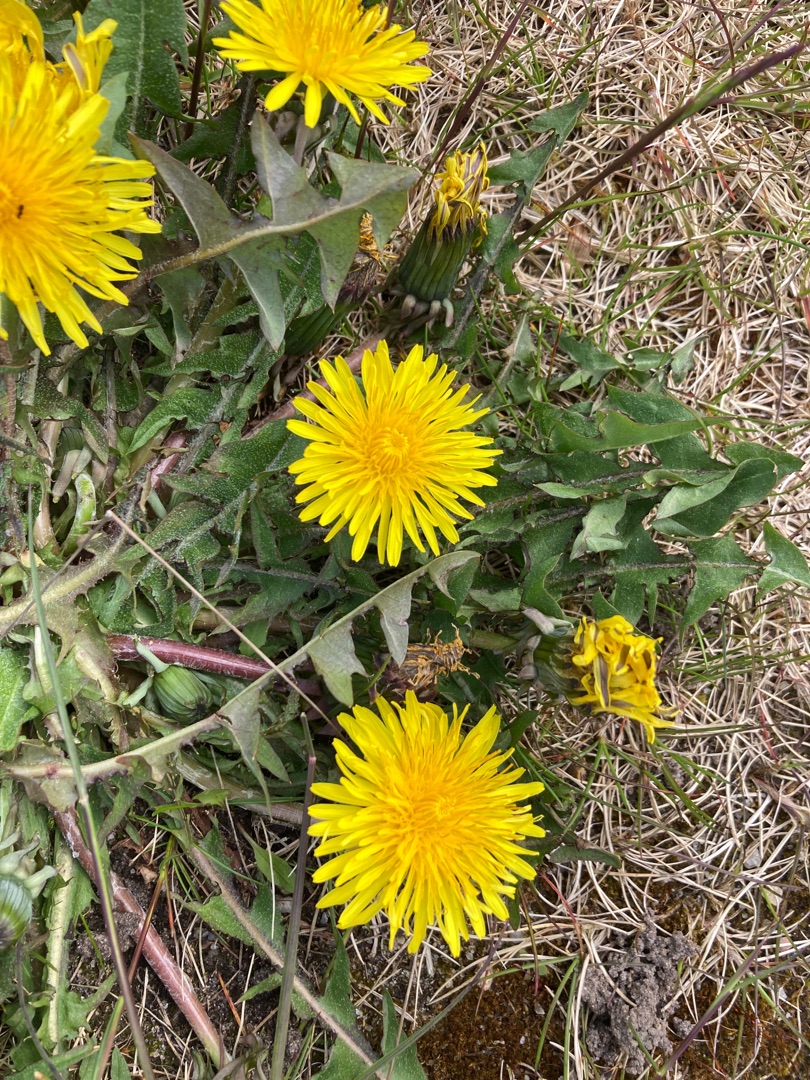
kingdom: Plantae
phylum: Tracheophyta
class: Magnoliopsida
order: Asterales
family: Asteraceae
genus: Taraxacum
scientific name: Taraxacum
